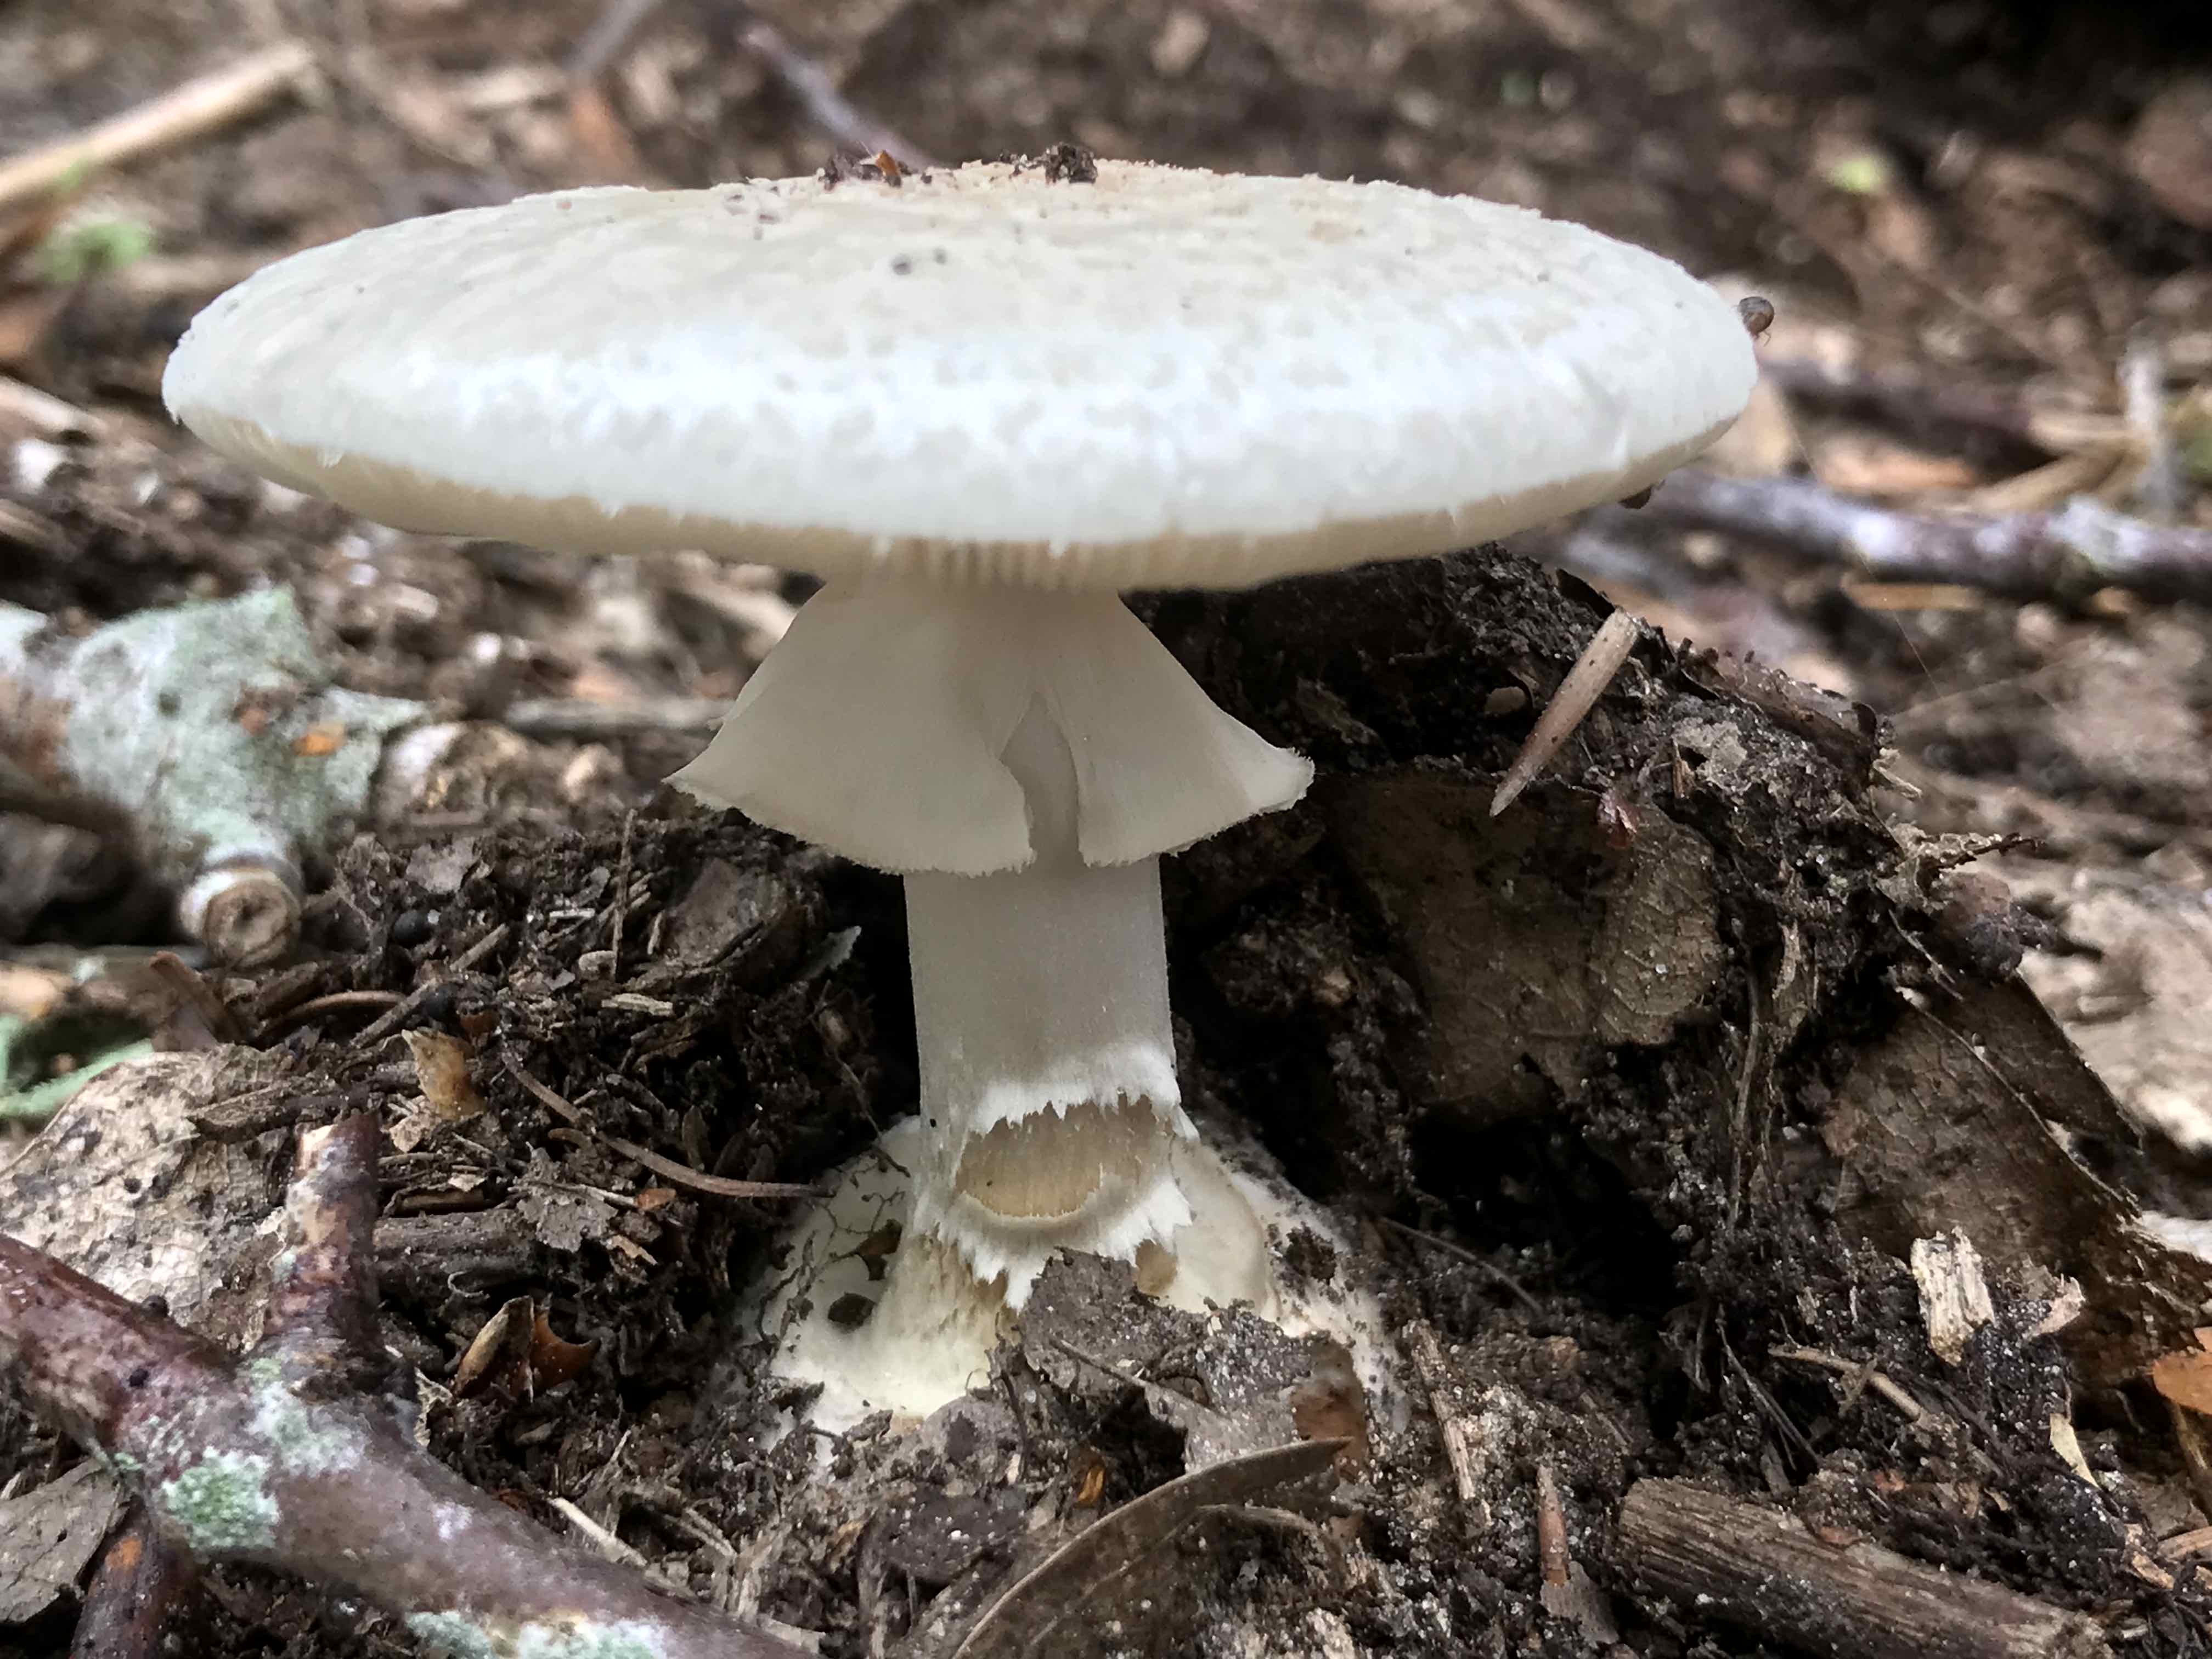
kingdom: Fungi
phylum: Basidiomycota
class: Agaricomycetes
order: Agaricales
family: Amanitaceae
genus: Amanita
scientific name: Amanita citrina
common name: kugleknoldet fluesvamp
